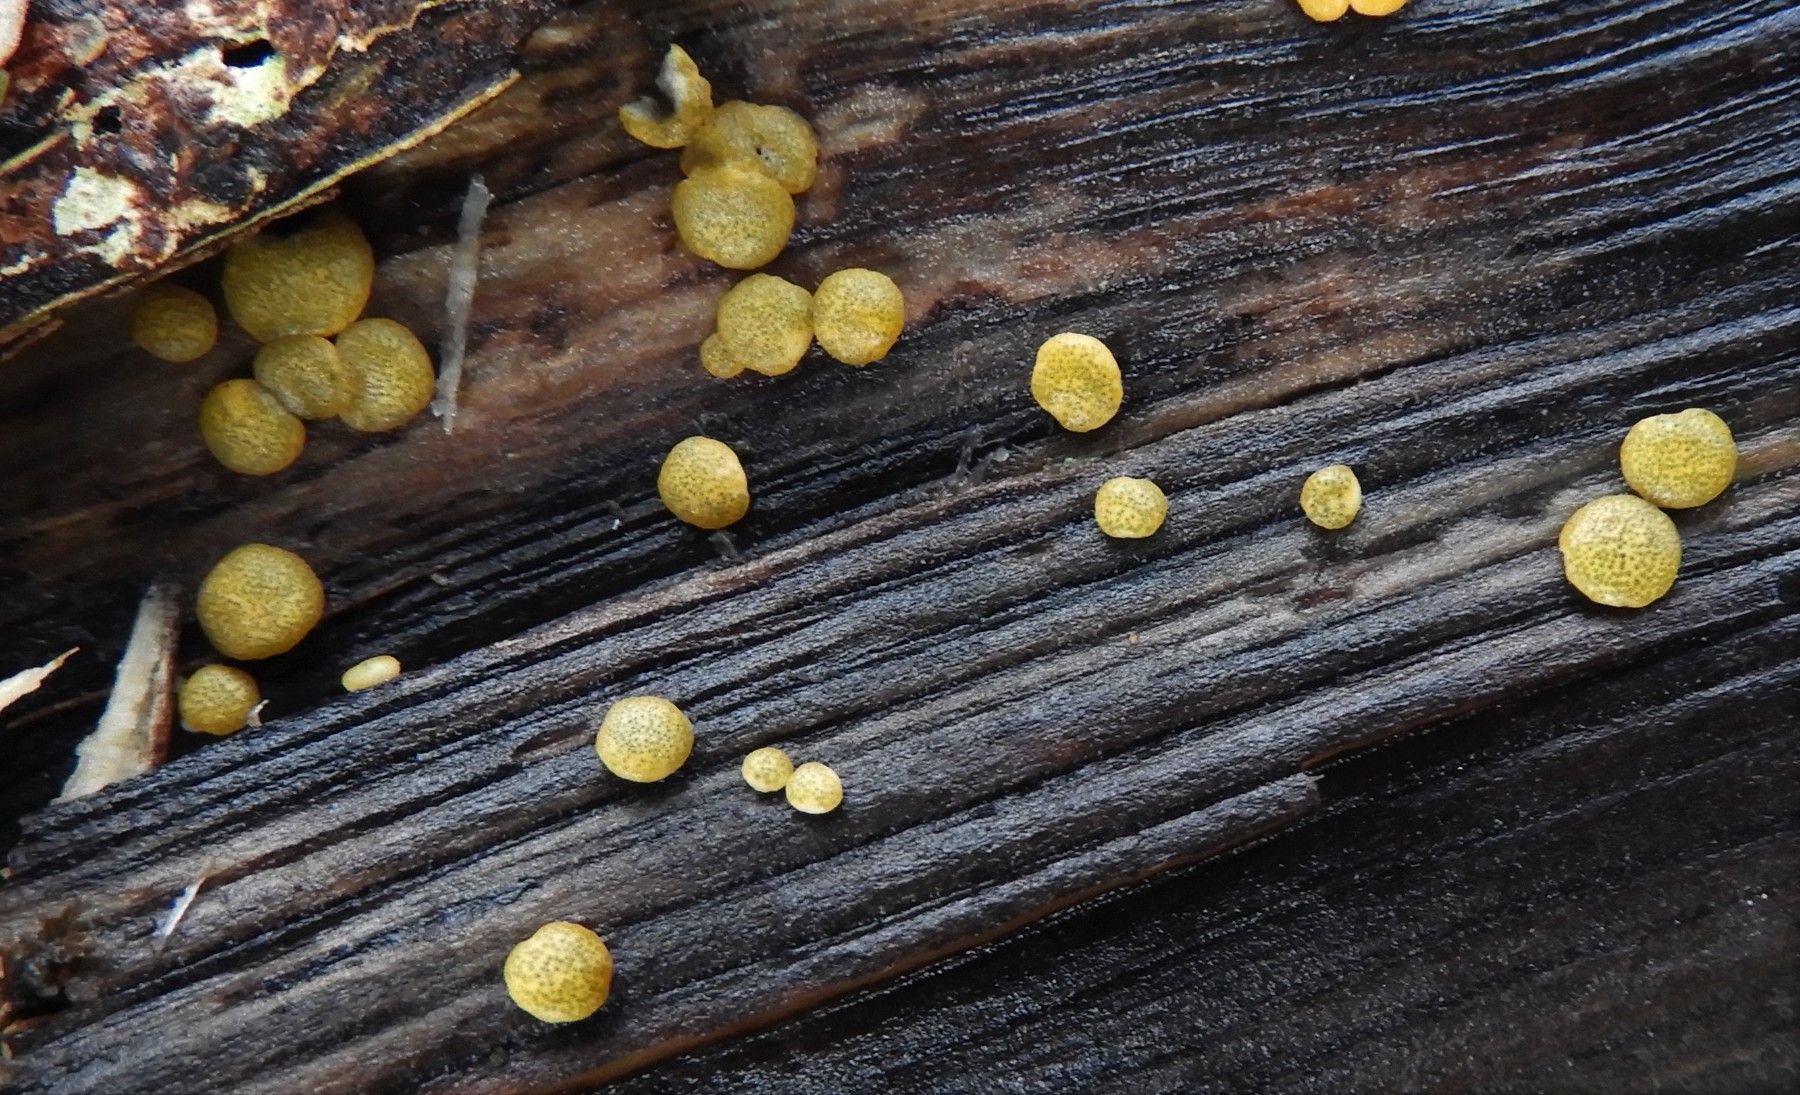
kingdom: Fungi
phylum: Ascomycota
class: Sordariomycetes
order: Hypocreales
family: Hypocreaceae
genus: Trichoderma
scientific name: Trichoderma aureoviride
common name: æggegul kødkerne
